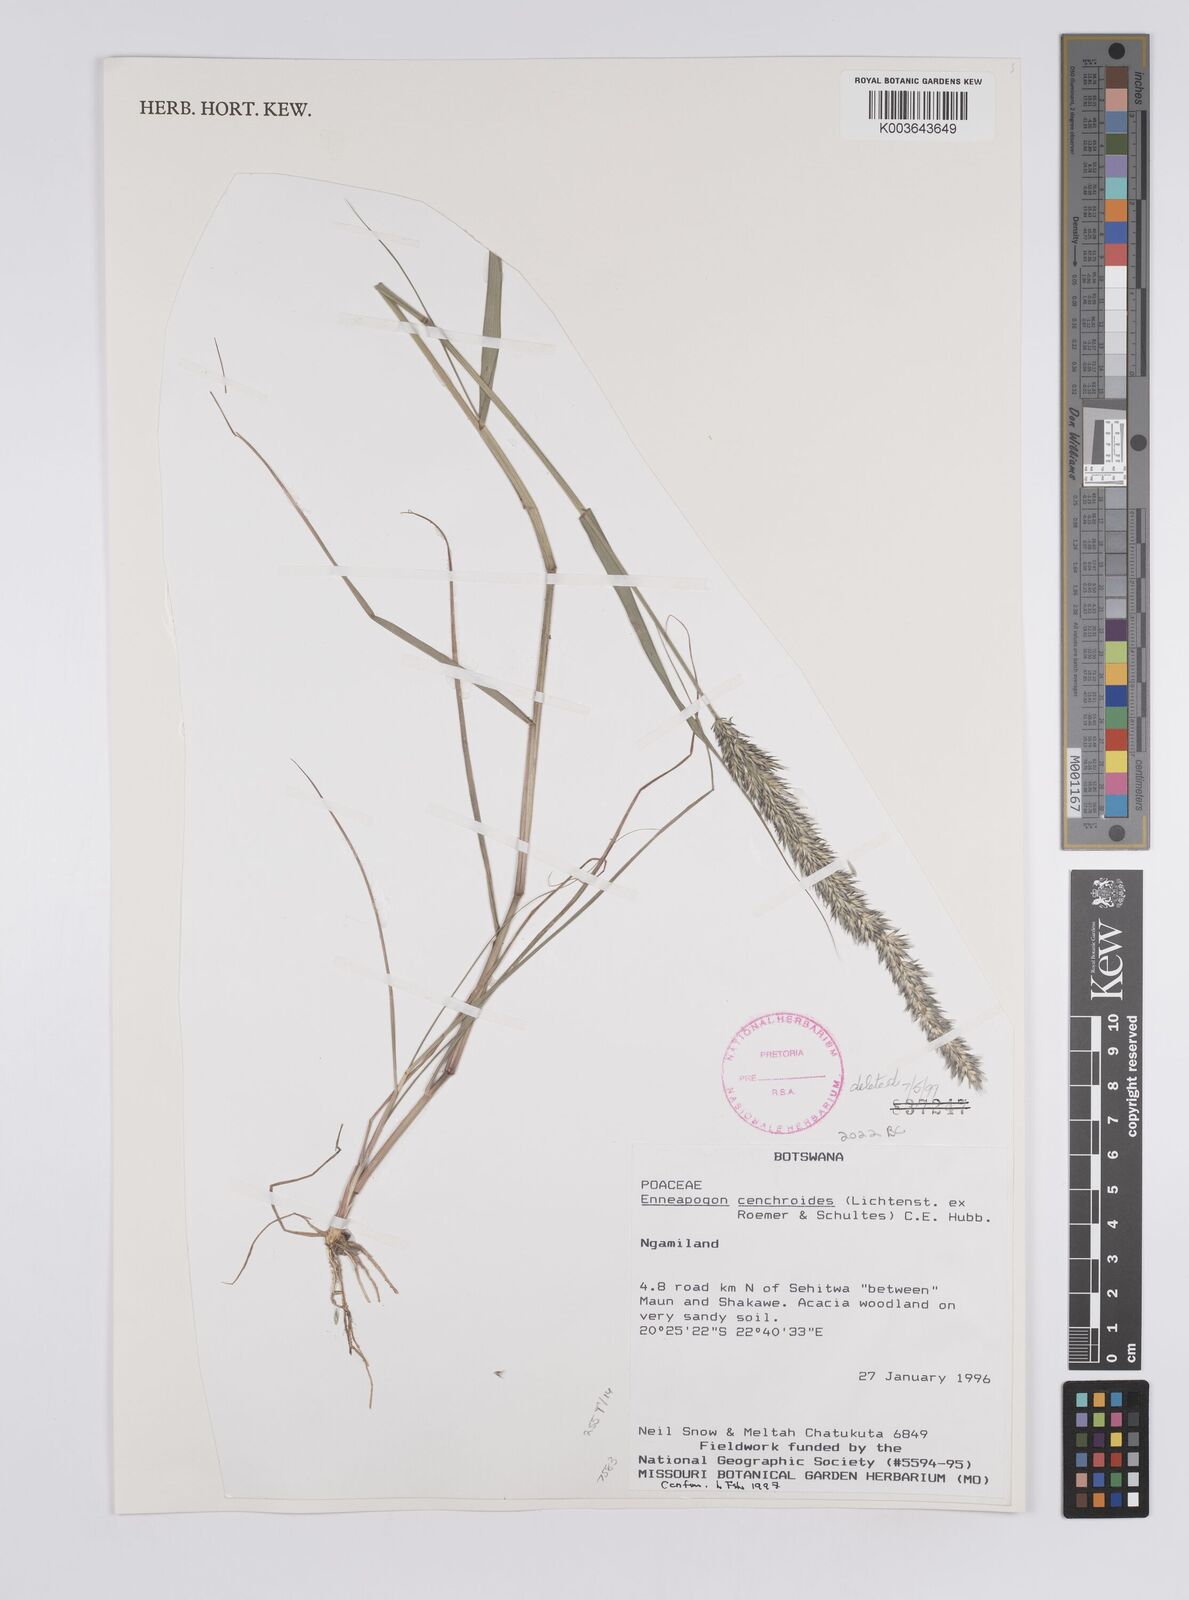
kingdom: Plantae
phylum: Tracheophyta
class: Liliopsida
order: Poales
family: Poaceae
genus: Enneapogon
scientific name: Enneapogon cenchroides
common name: Soft feather pappusgrass
